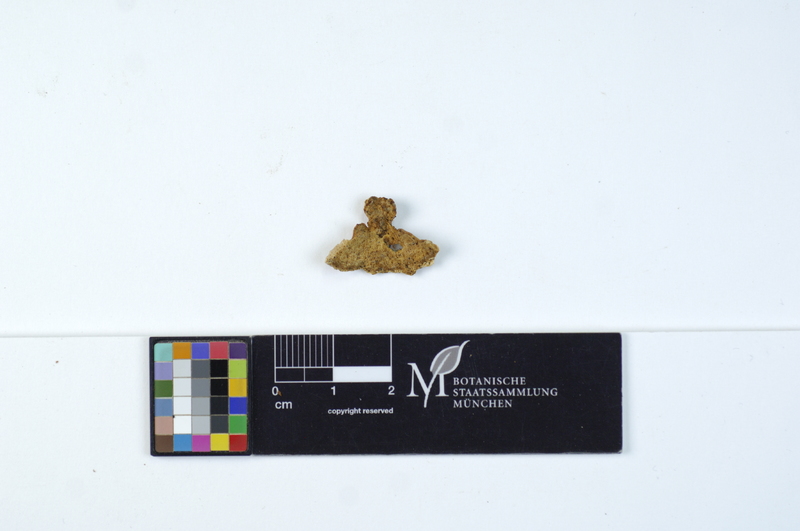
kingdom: Plantae
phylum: Tracheophyta
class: Magnoliopsida
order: Fagales
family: Betulaceae
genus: Alnus
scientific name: Alnus
